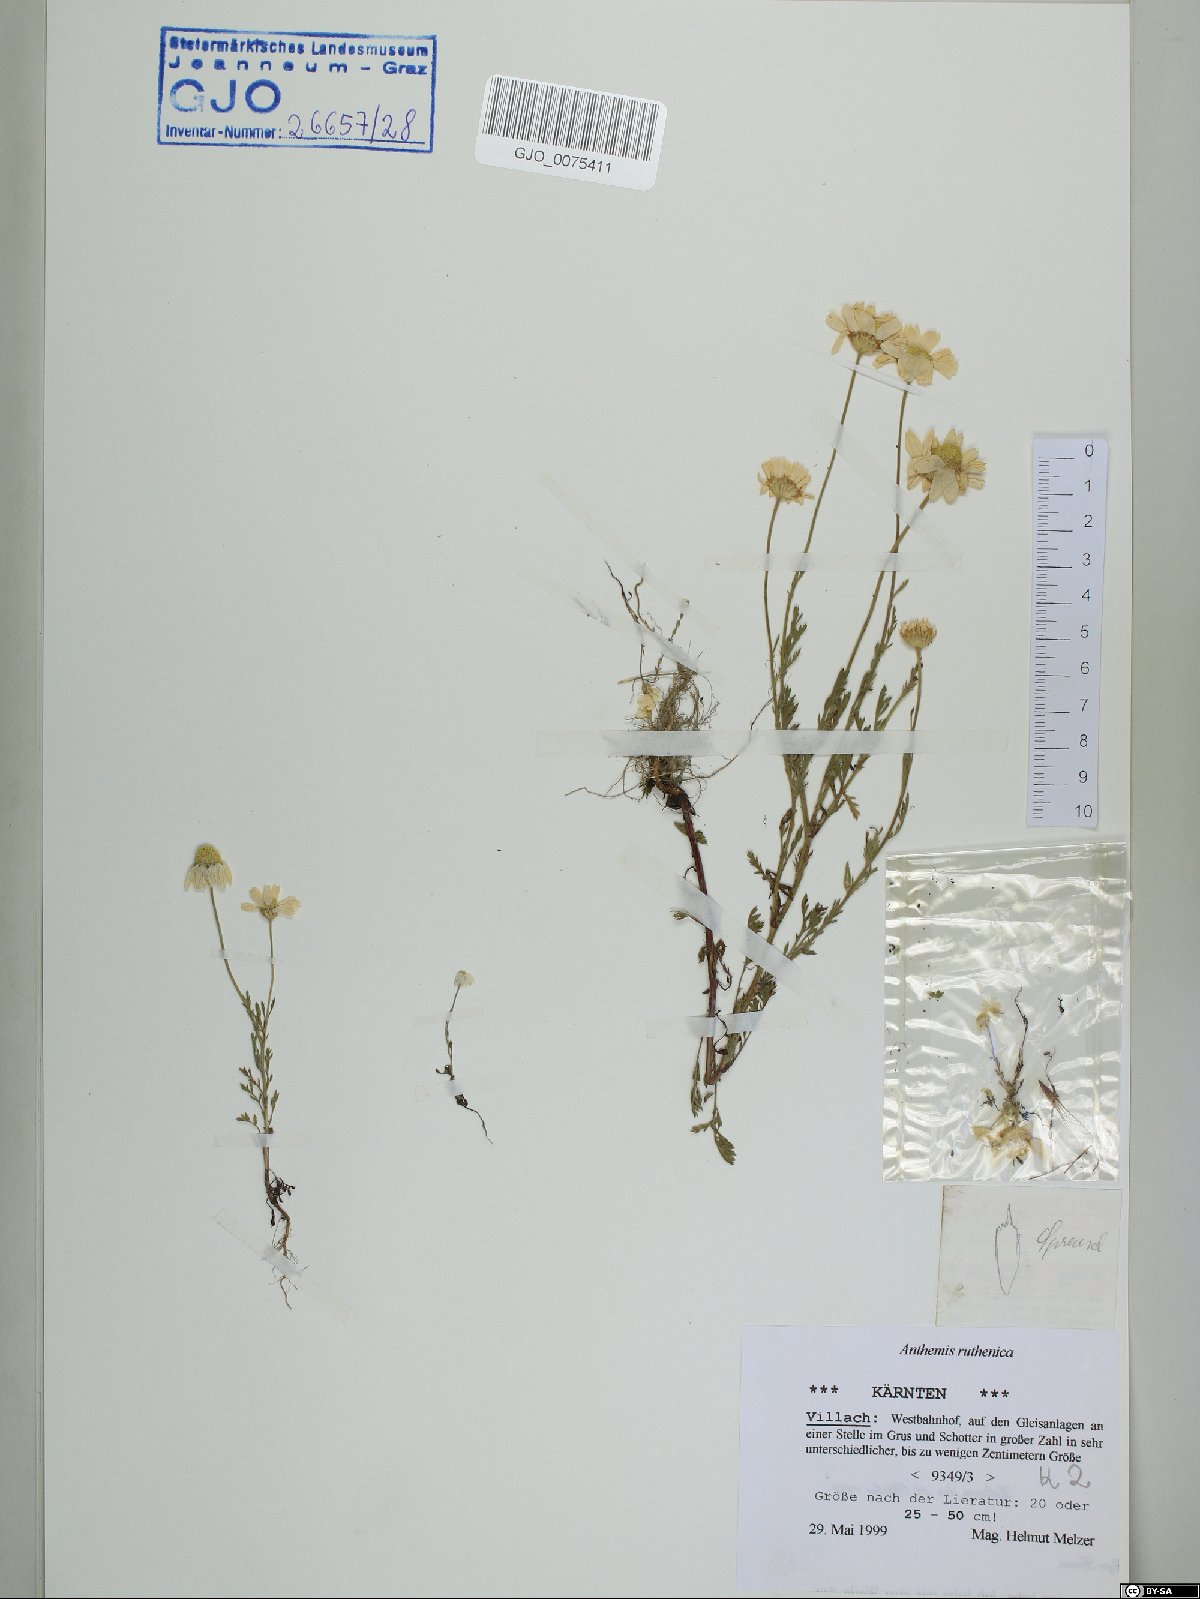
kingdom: Plantae
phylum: Tracheophyta
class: Magnoliopsida
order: Asterales
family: Asteraceae
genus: Anthemis
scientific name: Anthemis ruthenica
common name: Eastern chamomile
